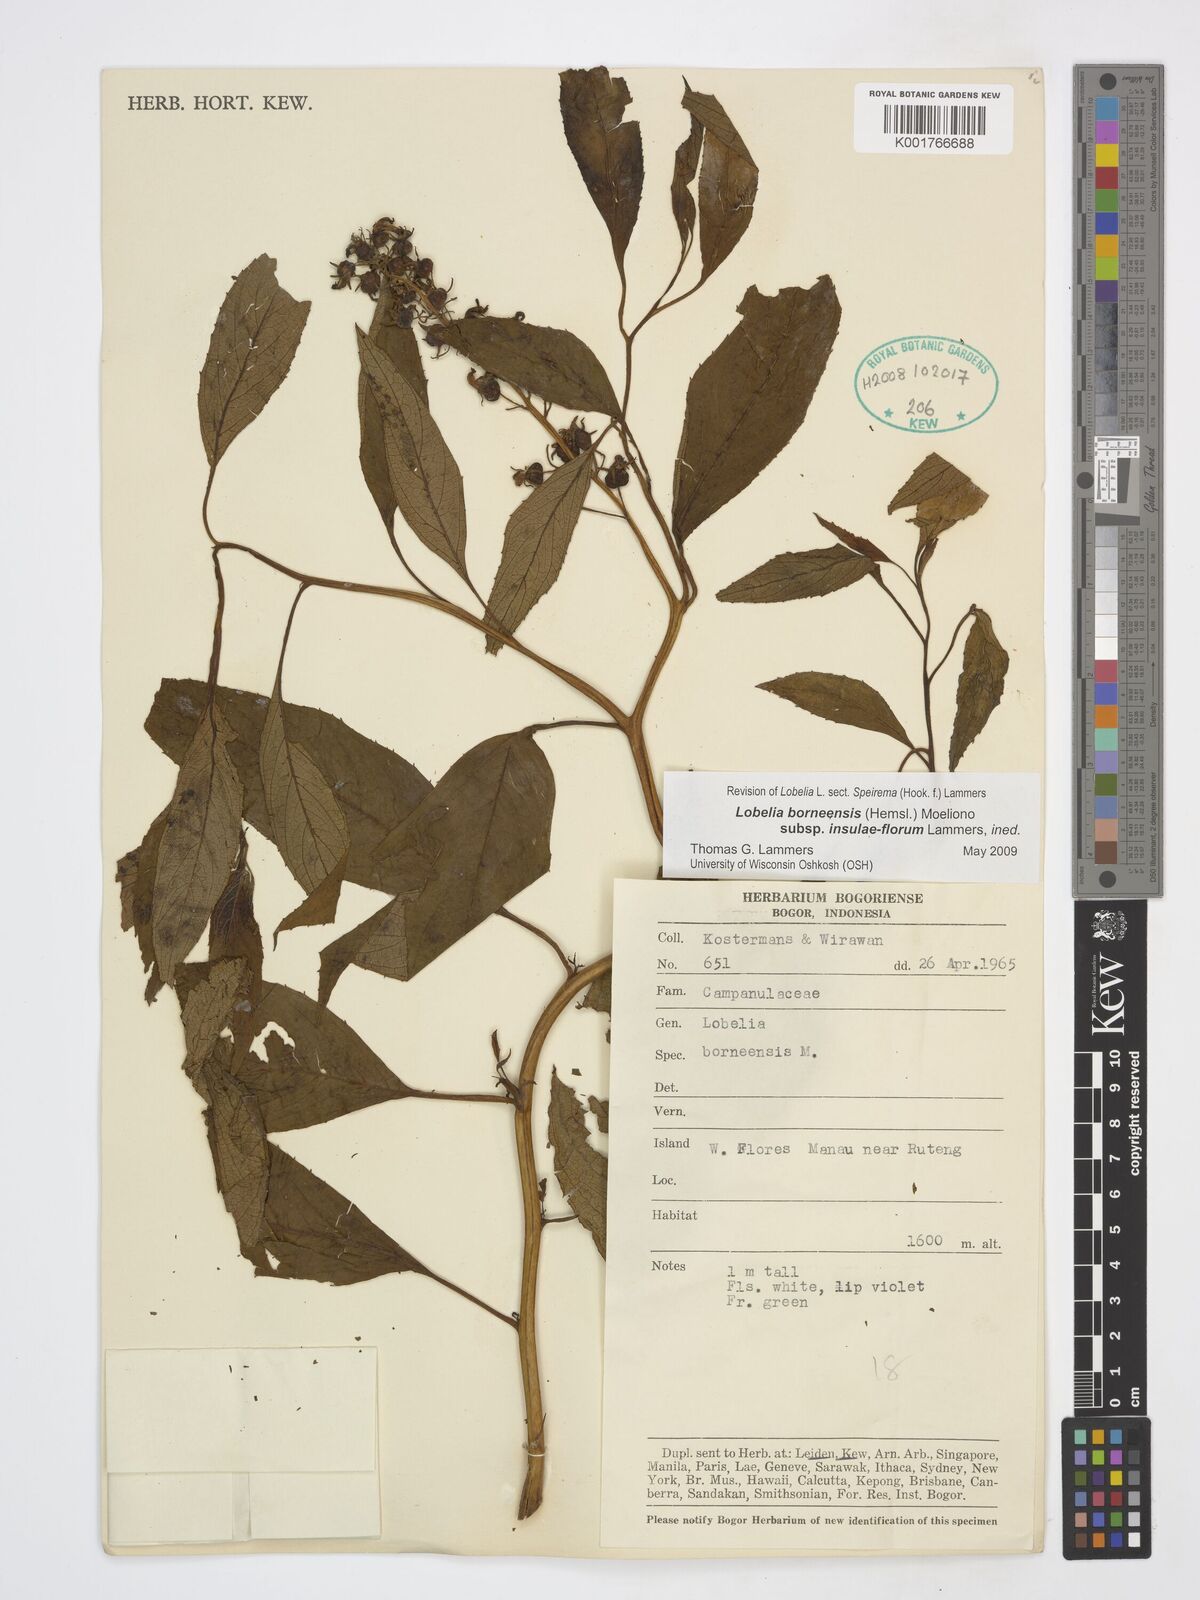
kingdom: Plantae
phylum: Tracheophyta
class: Magnoliopsida
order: Asterales
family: Campanulaceae
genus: Lobelia
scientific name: Lobelia borneensis
